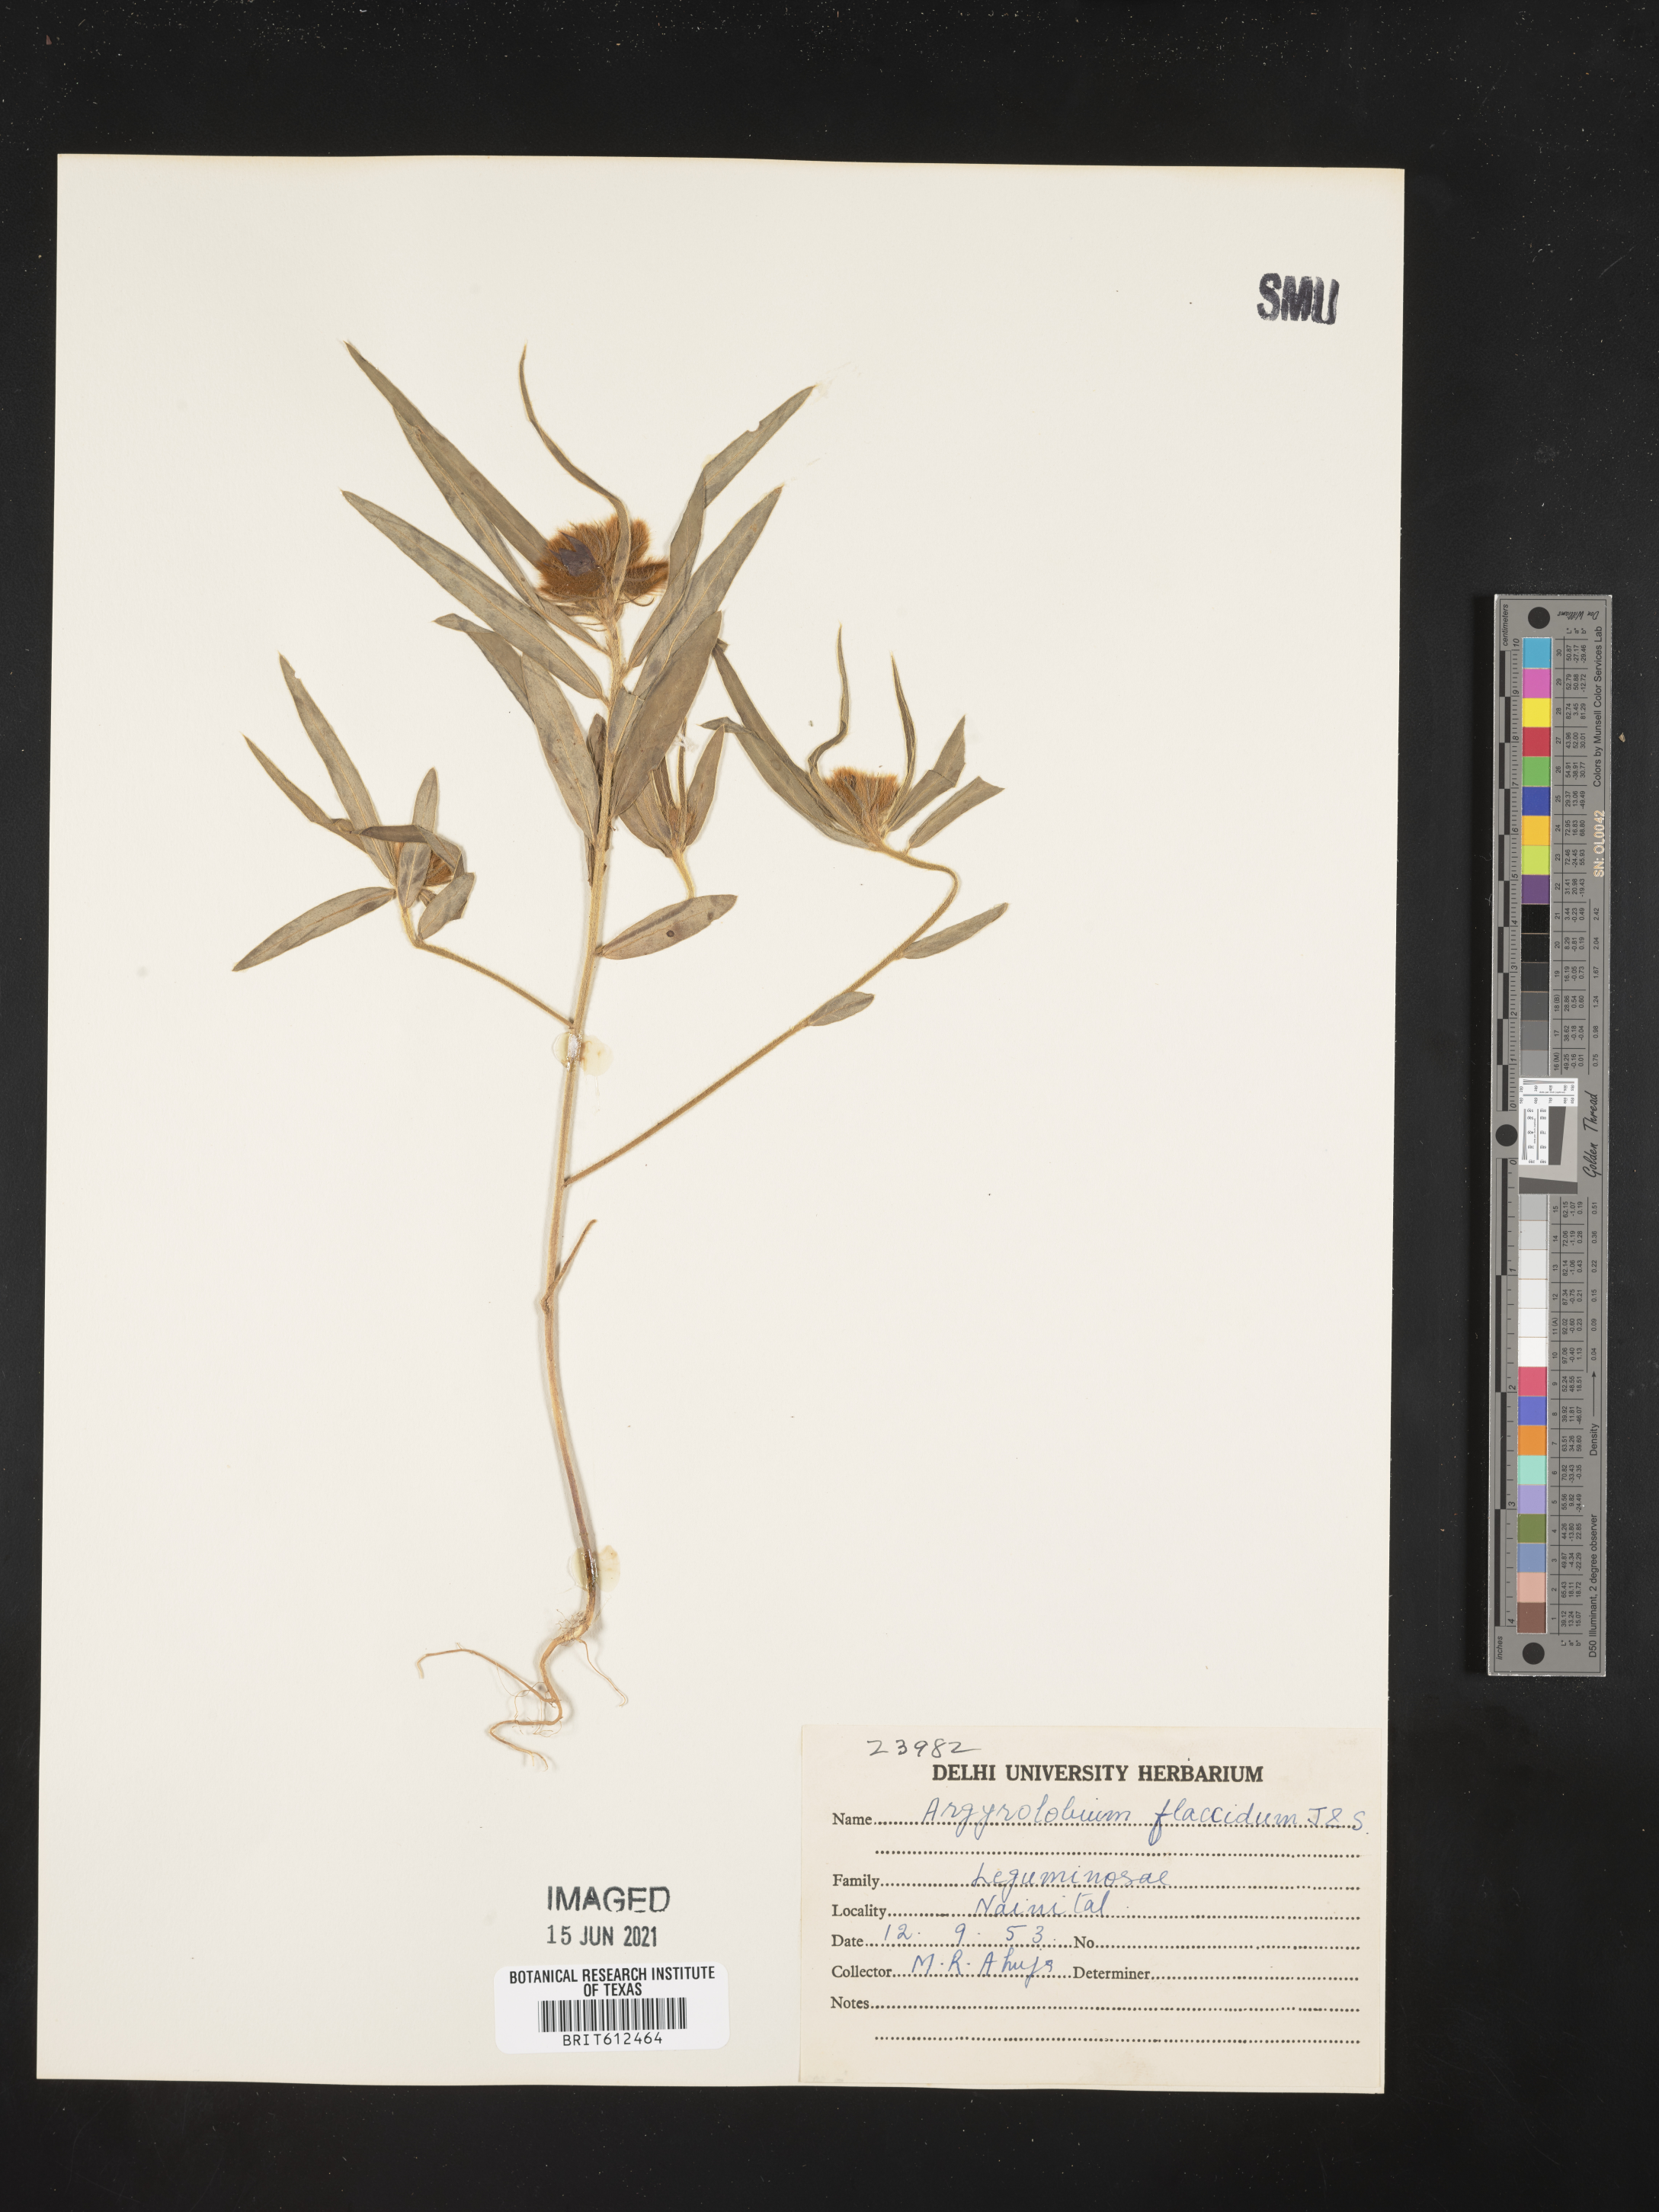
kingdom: Plantae
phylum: Tracheophyta
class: Magnoliopsida
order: Fabales
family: Fabaceae
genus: Argyrolobium
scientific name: Argyrolobium flaccidum
